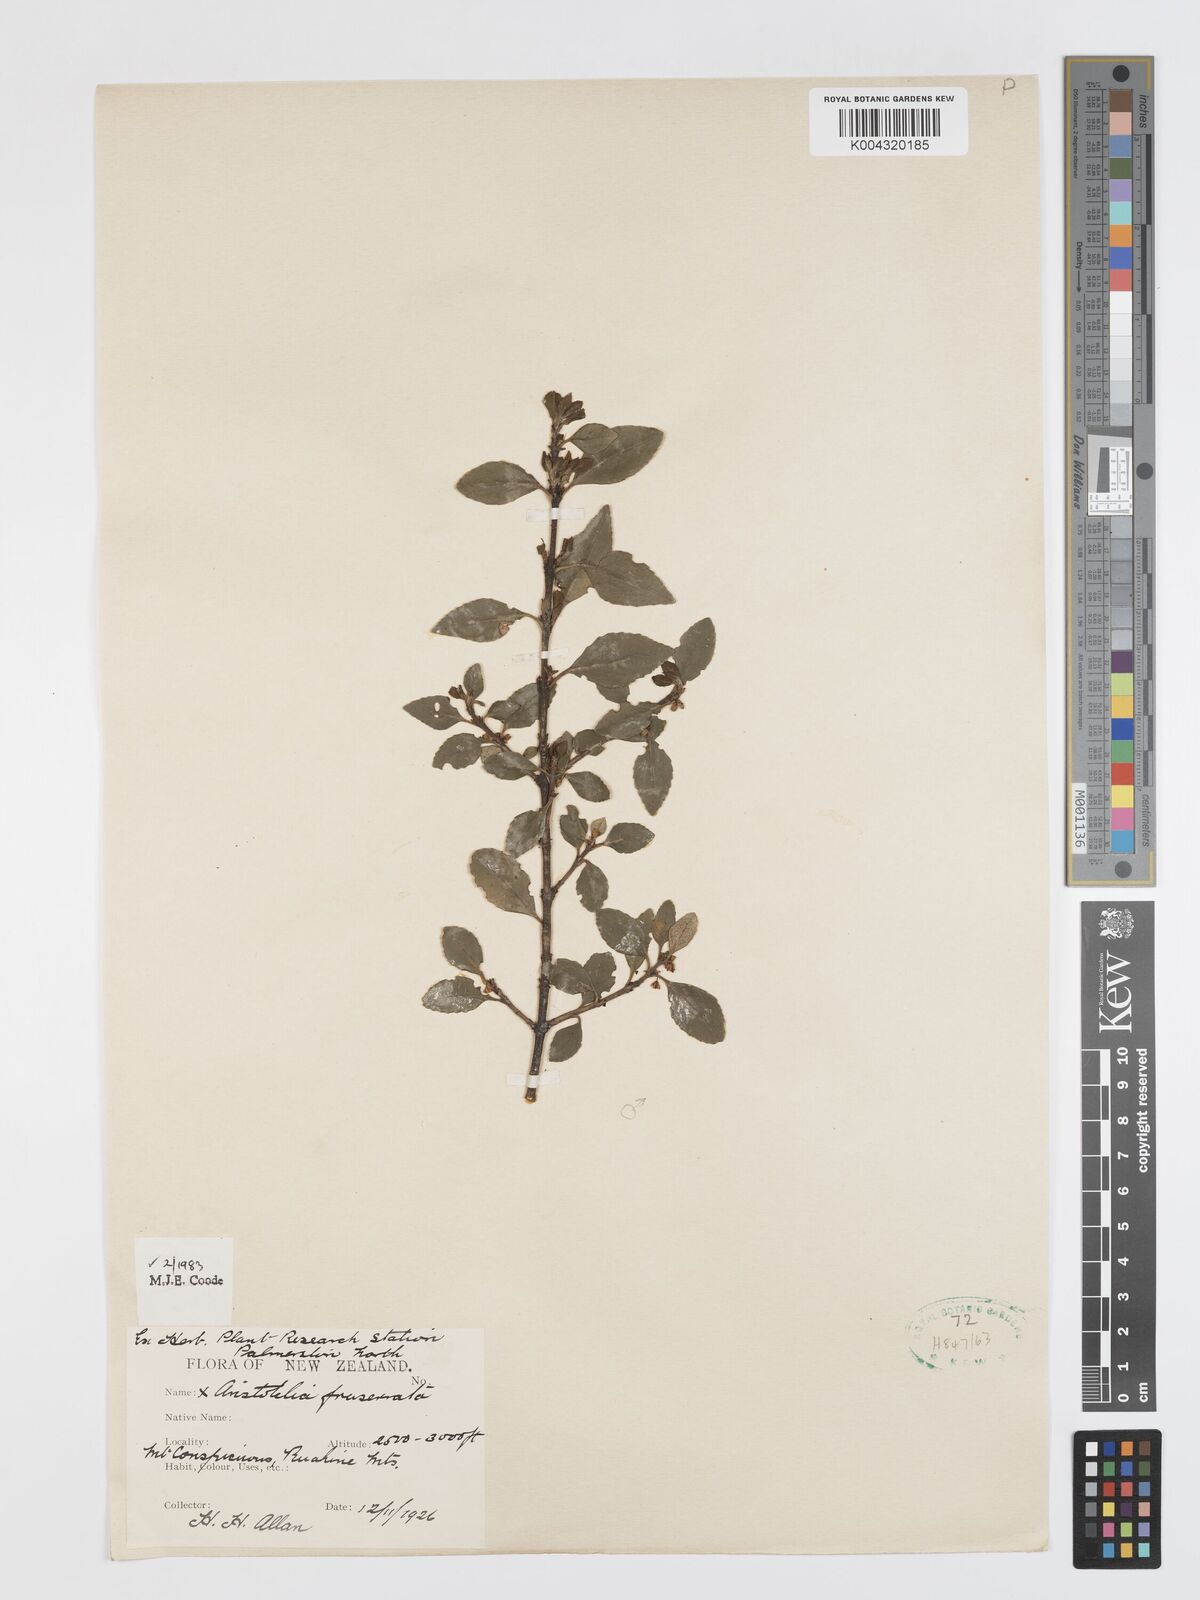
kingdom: Plantae
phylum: Tracheophyta
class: Magnoliopsida
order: Oxalidales
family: Elaeocarpaceae
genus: Aristotelia
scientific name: Aristotelia fruticosa
